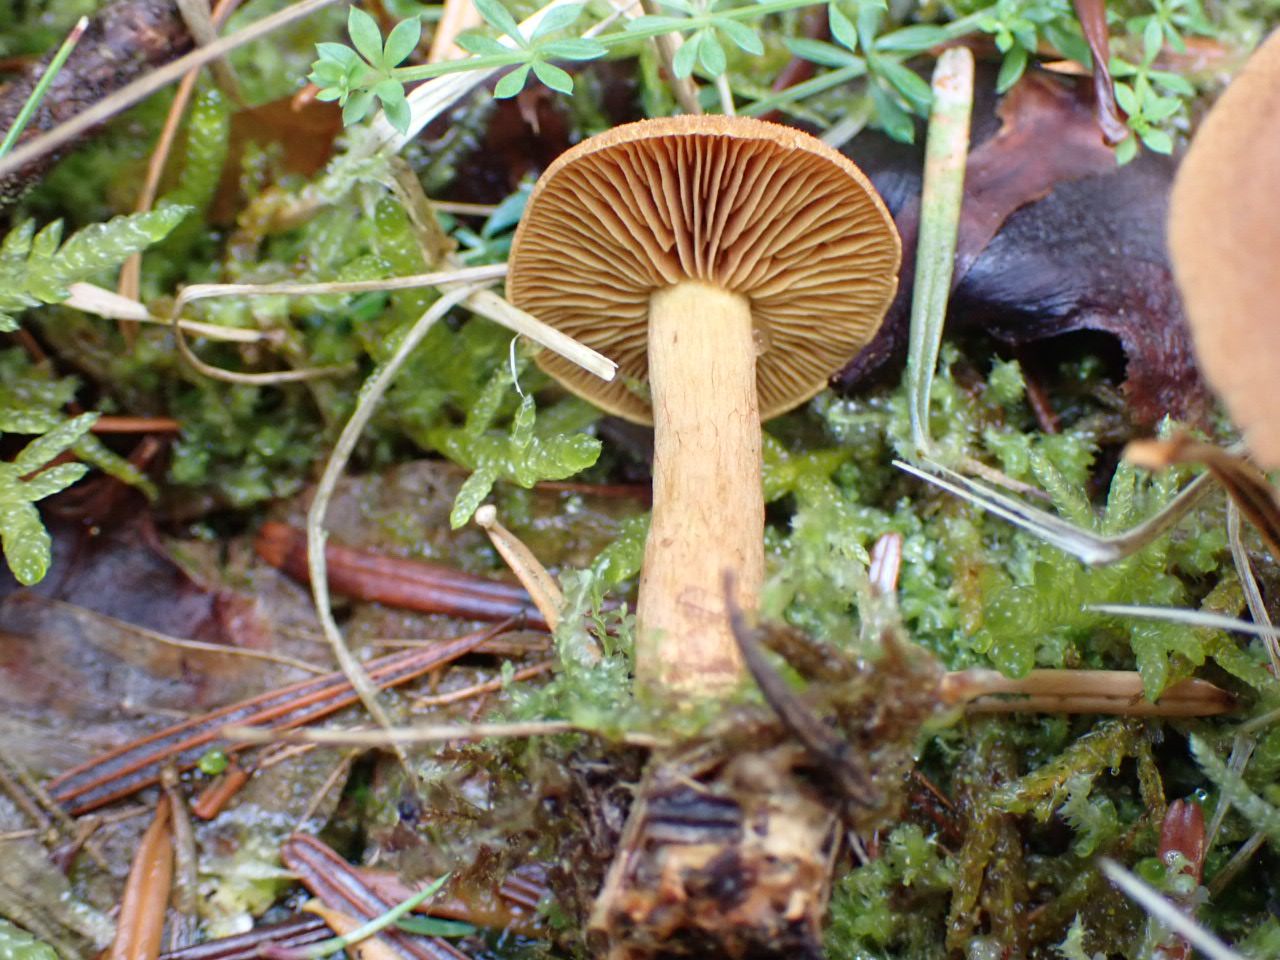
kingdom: Fungi
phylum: Basidiomycota
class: Agaricomycetes
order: Agaricales
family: Cortinariaceae
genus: Cortinarius
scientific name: Cortinarius cinnamomeus
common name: kanel-slørhat
